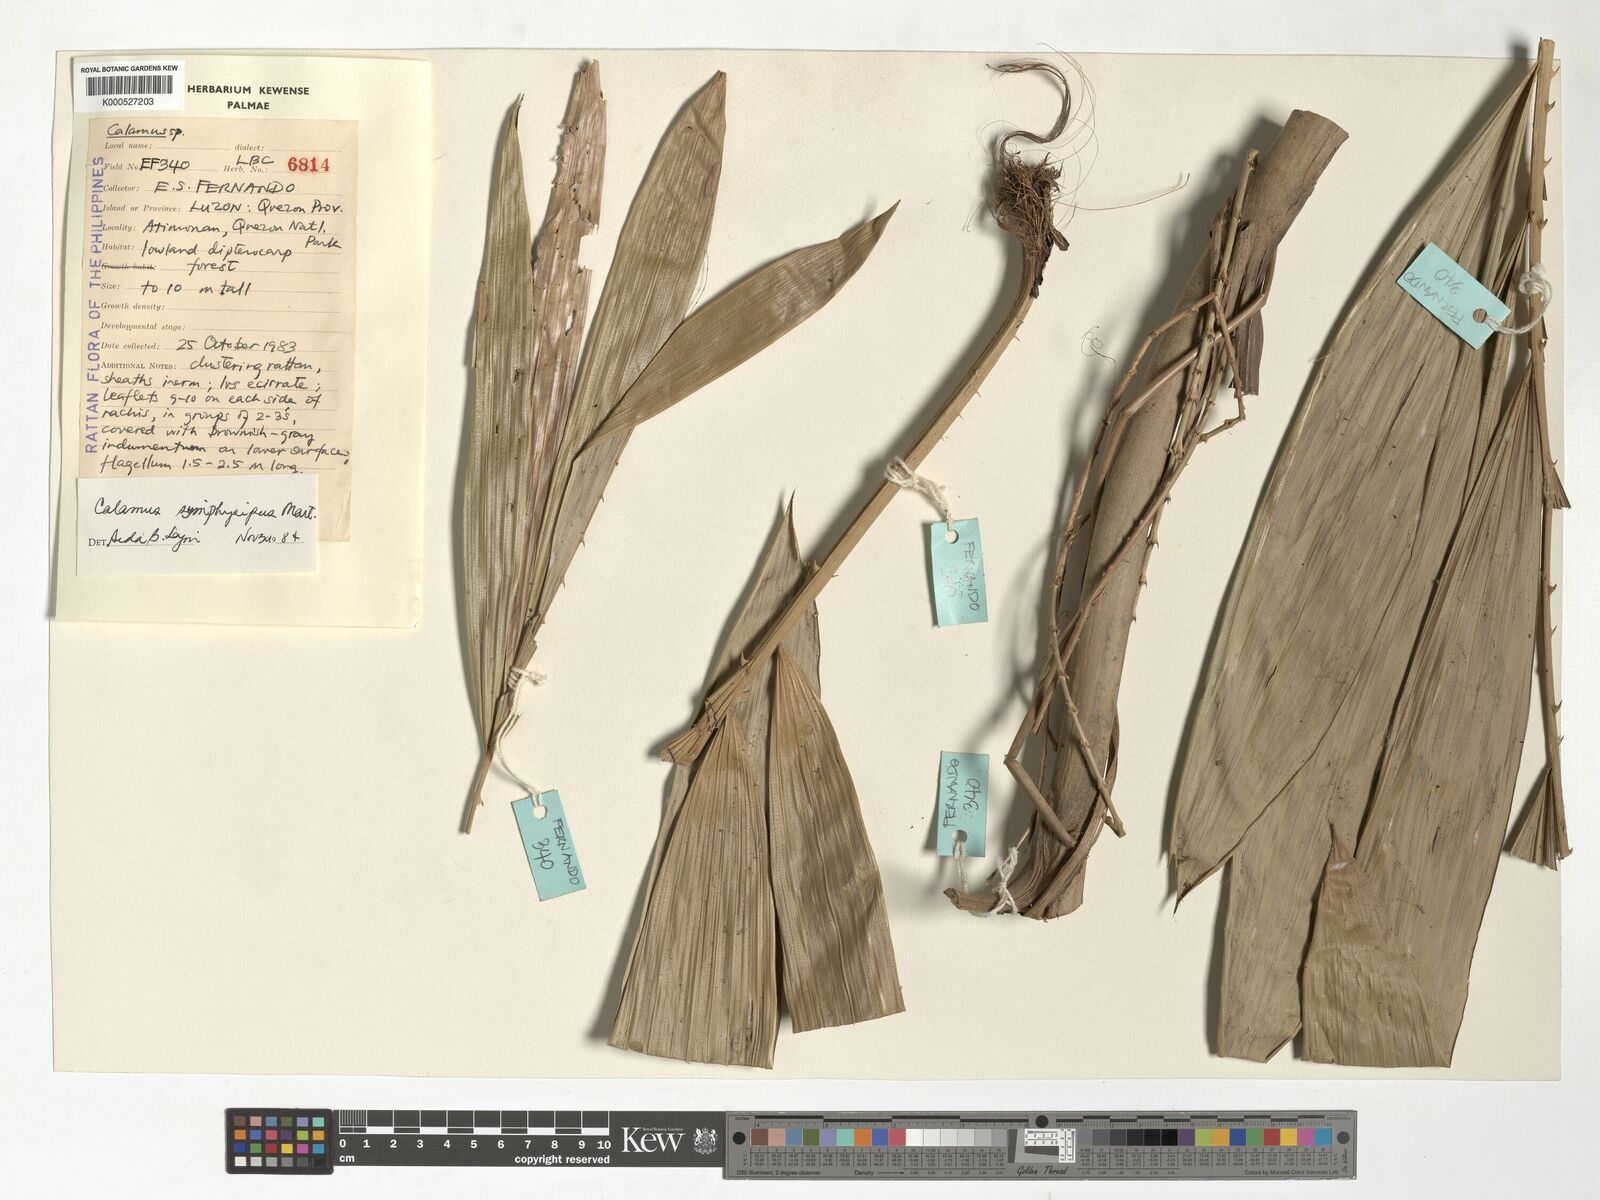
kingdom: Plantae
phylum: Tracheophyta
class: Liliopsida
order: Arecales
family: Arecaceae
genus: Calamus
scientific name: Calamus symphysipus
